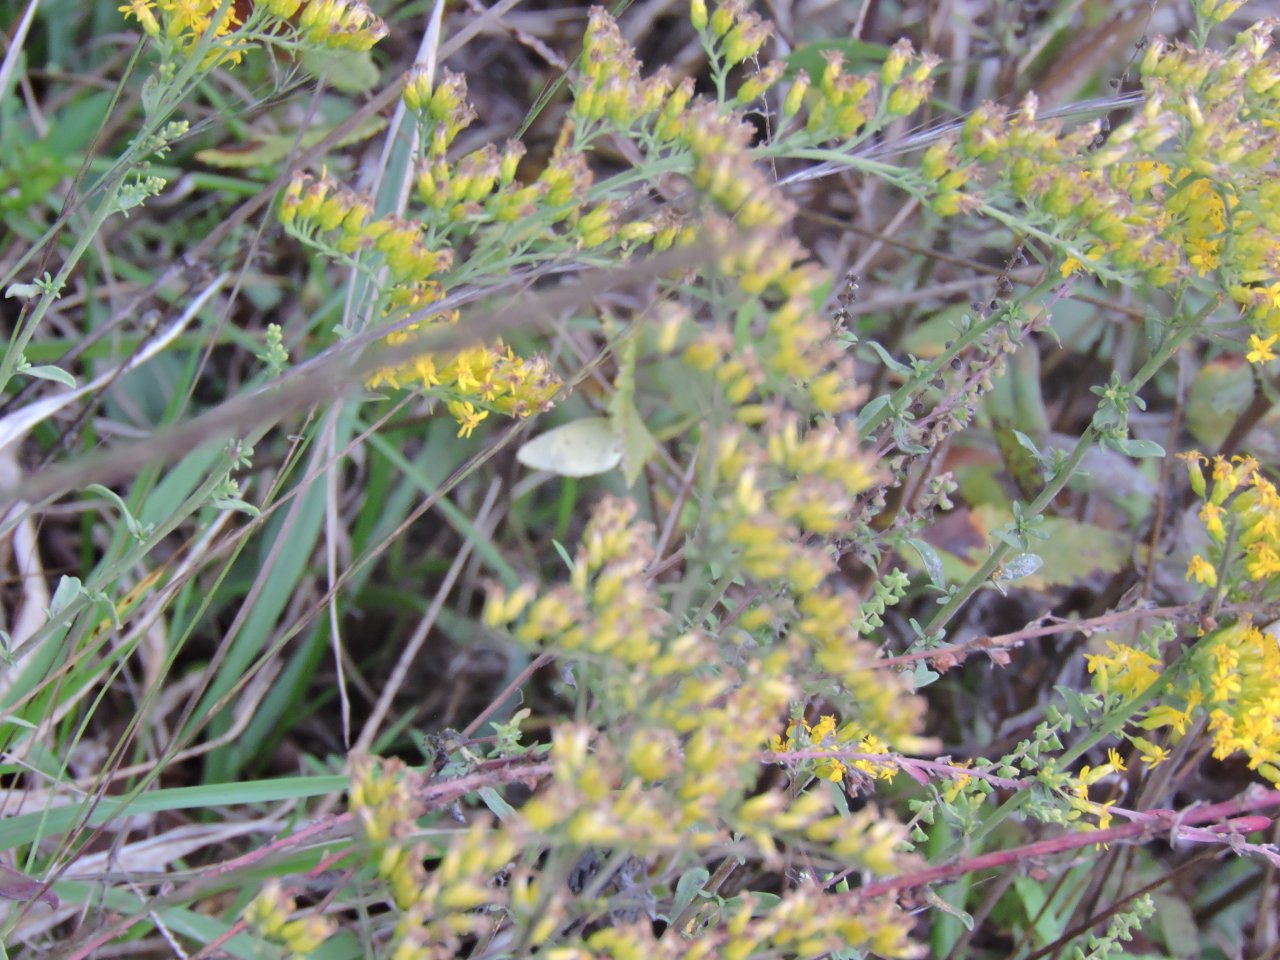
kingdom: Animalia
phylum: Arthropoda
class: Insecta
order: Lepidoptera
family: Pieridae
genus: Pyrisitia
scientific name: Pyrisitia lisa
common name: Little Yellow
